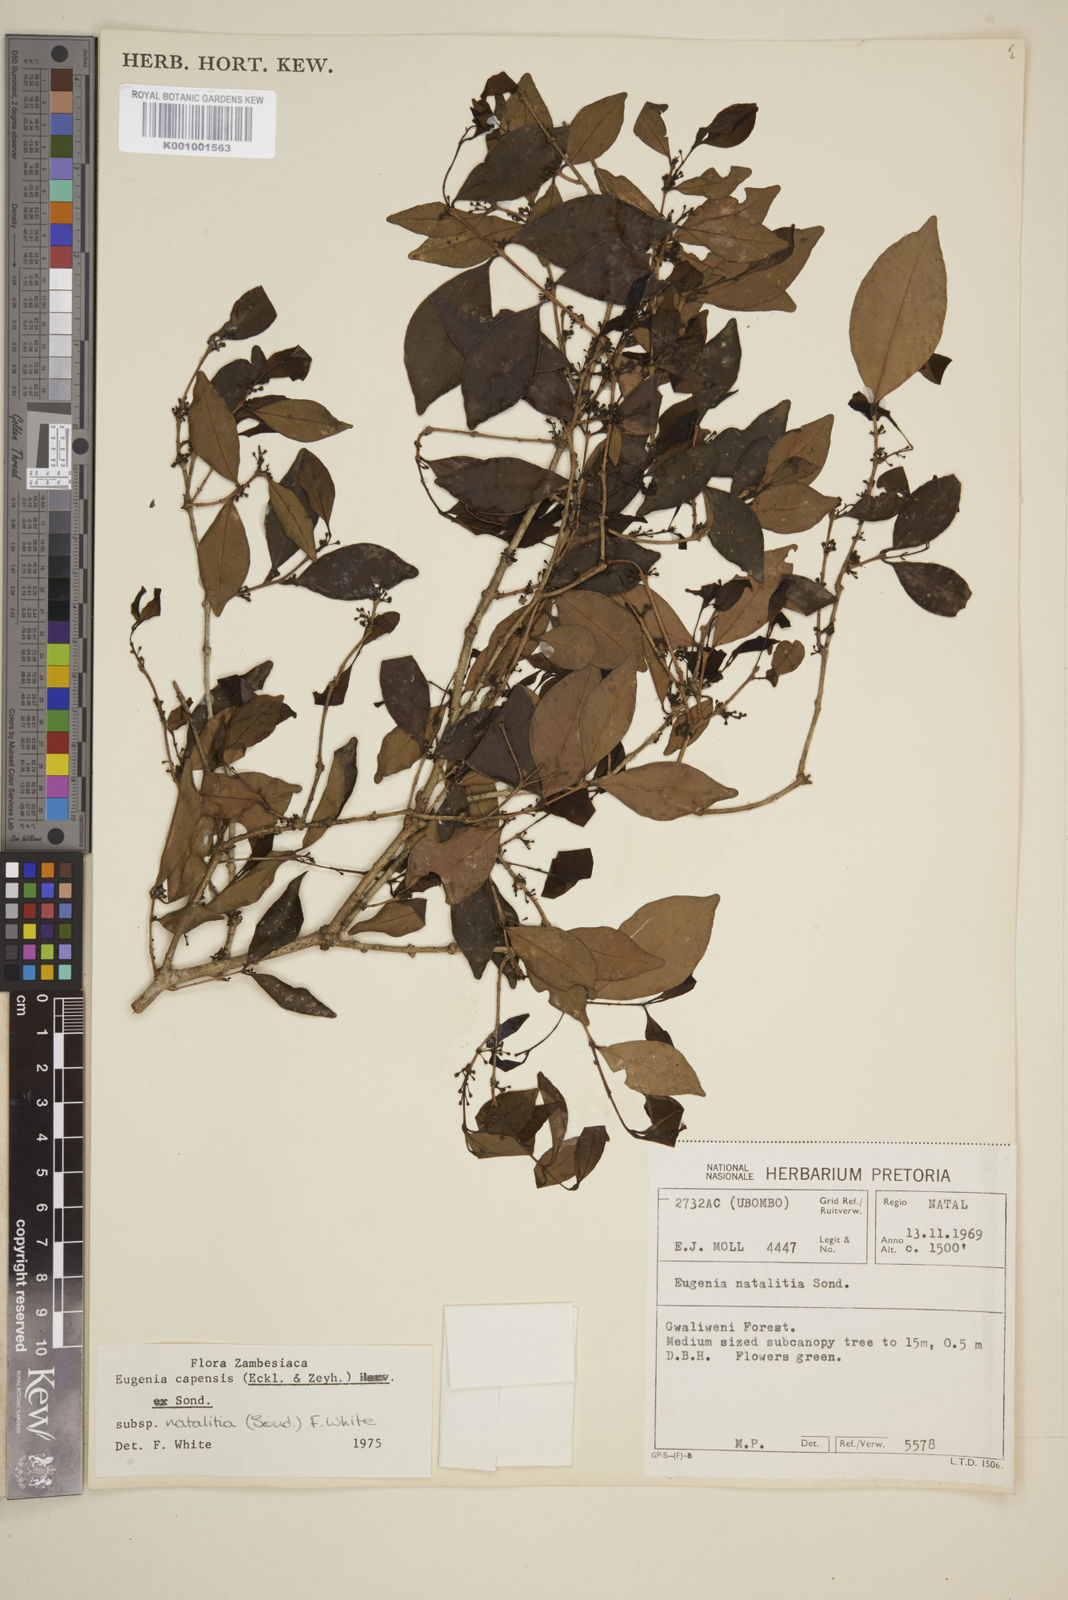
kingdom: Plantae
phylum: Tracheophyta
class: Magnoliopsida
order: Myrtales
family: Myrtaceae
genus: Eugenia
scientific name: Eugenia natalitia
